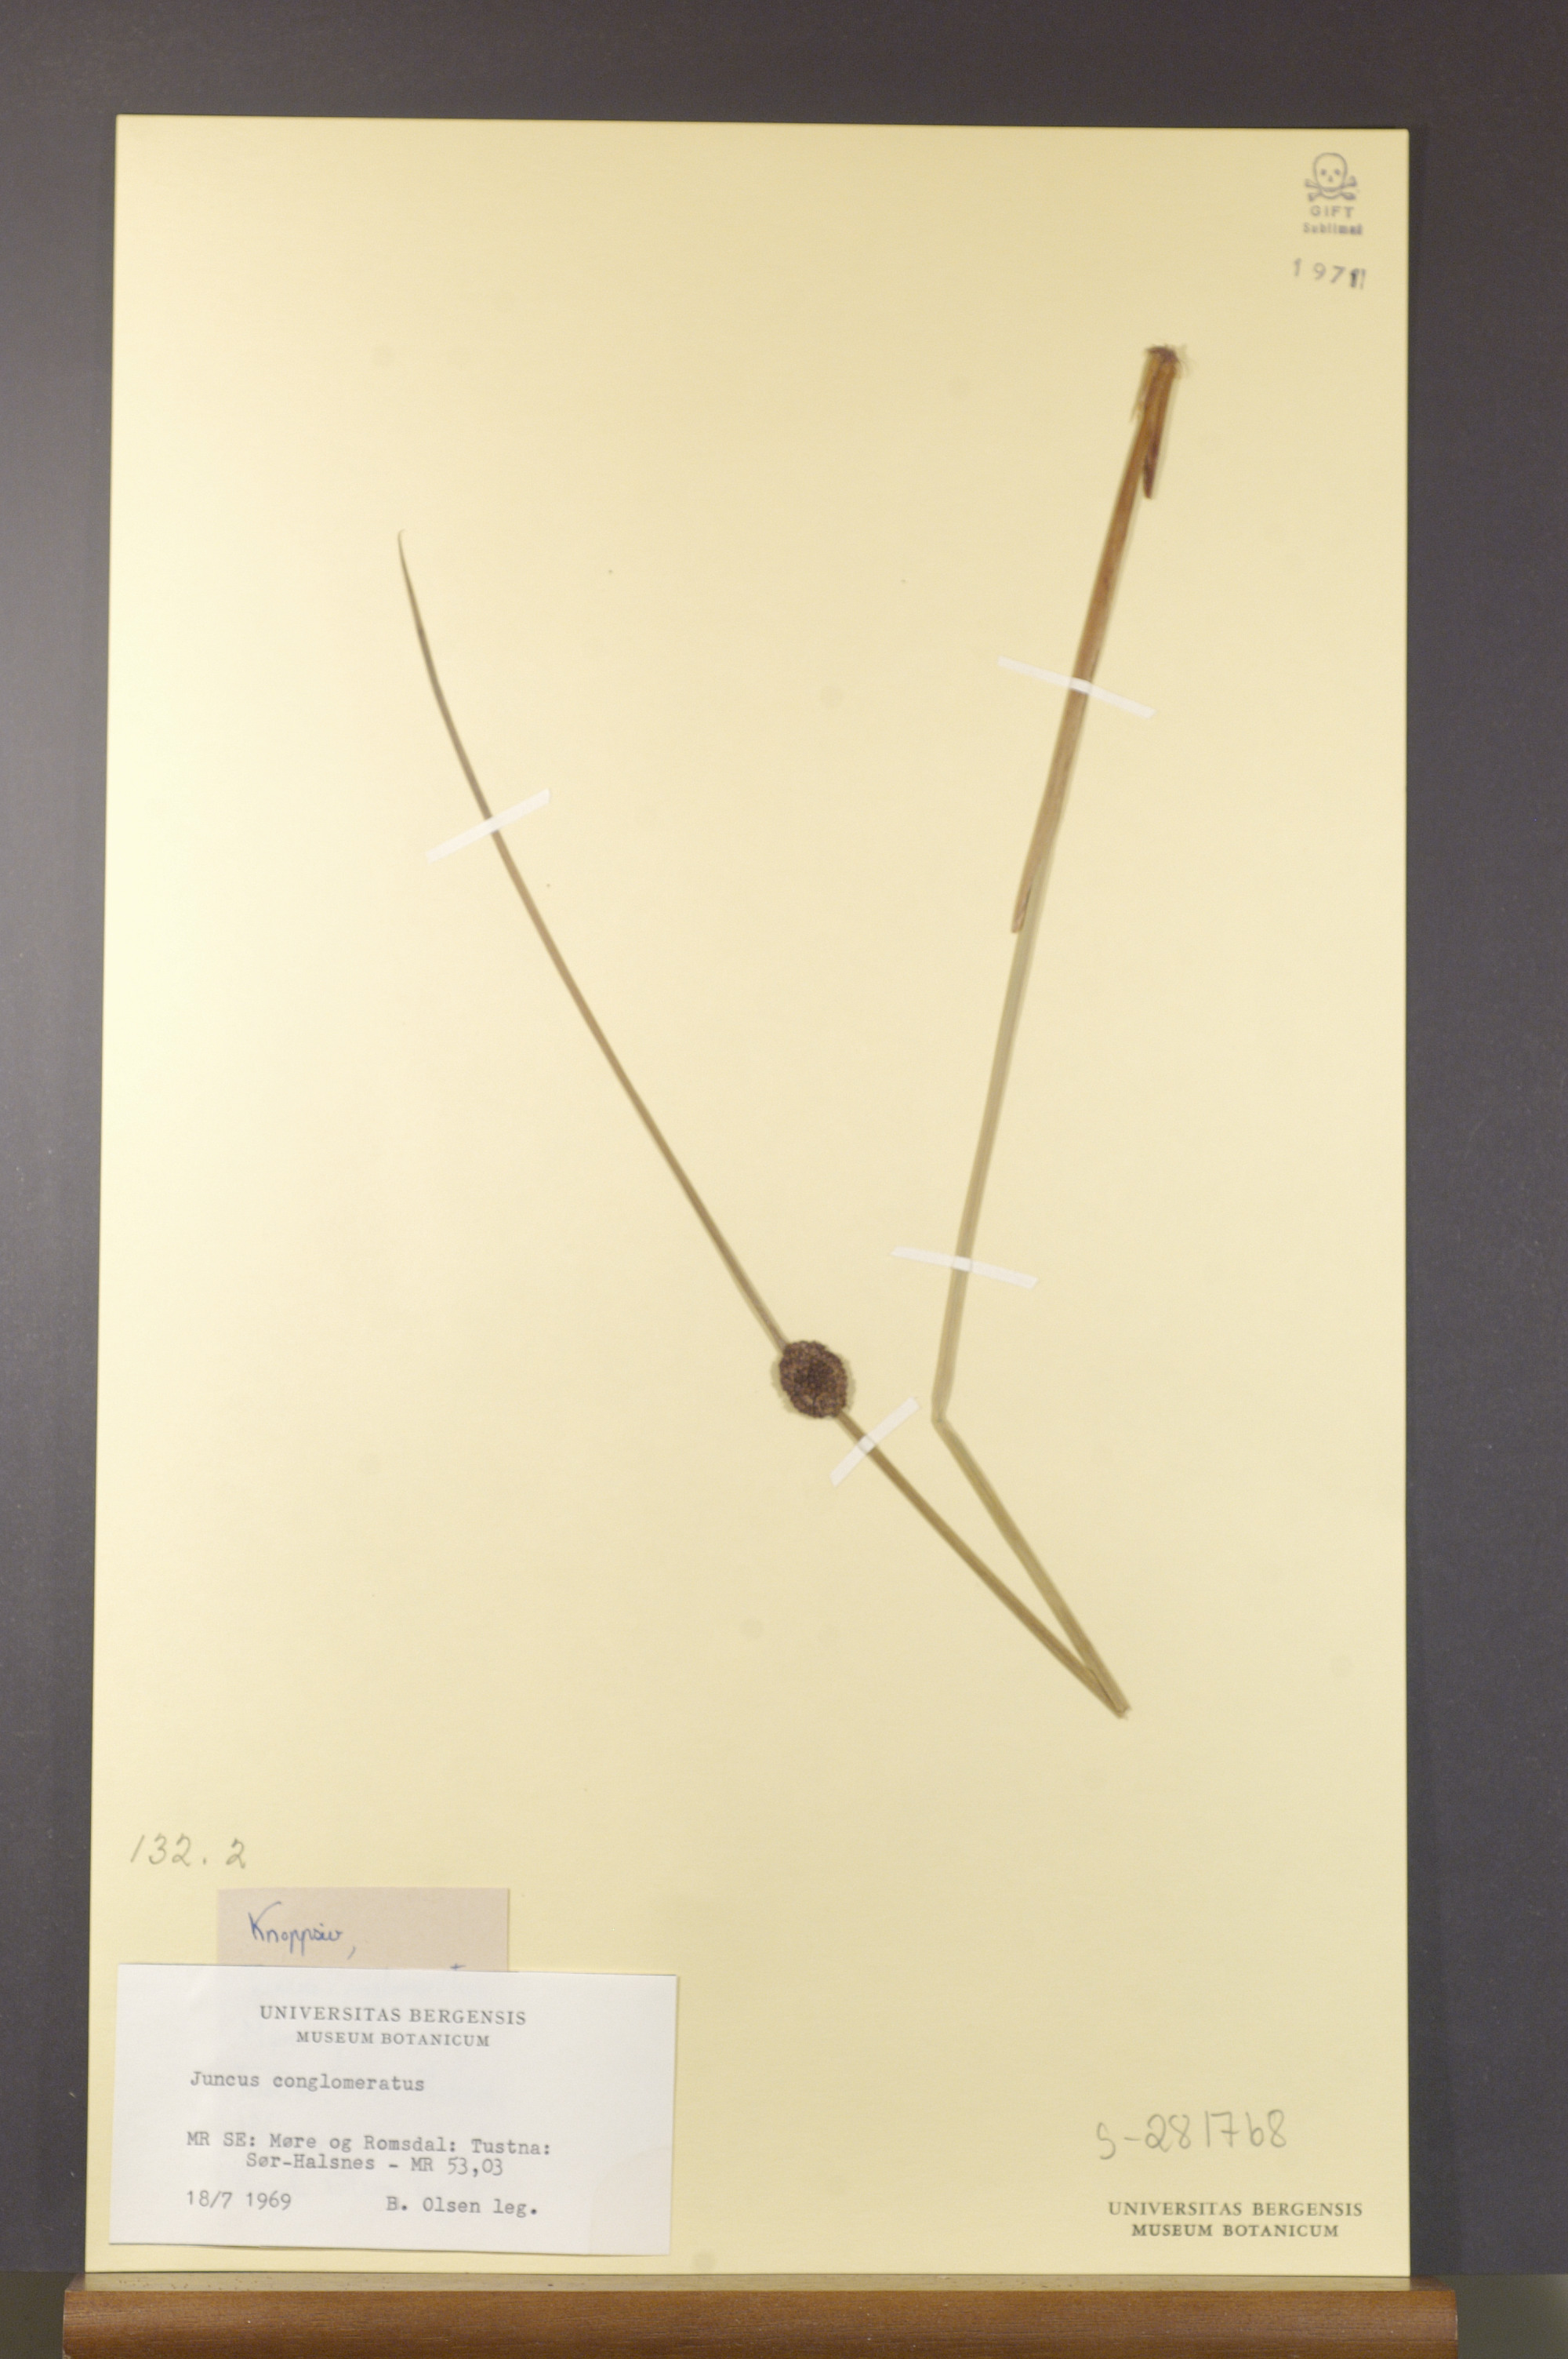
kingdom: Plantae
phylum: Tracheophyta
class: Liliopsida
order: Poales
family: Juncaceae
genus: Juncus
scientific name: Juncus conglomeratus
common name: Compact rush
